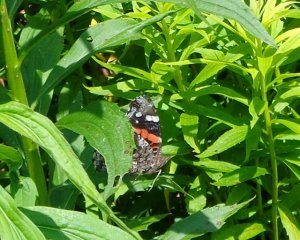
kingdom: Animalia
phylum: Arthropoda
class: Insecta
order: Lepidoptera
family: Nymphalidae
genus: Vanessa
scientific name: Vanessa atalanta
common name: Red Admiral
